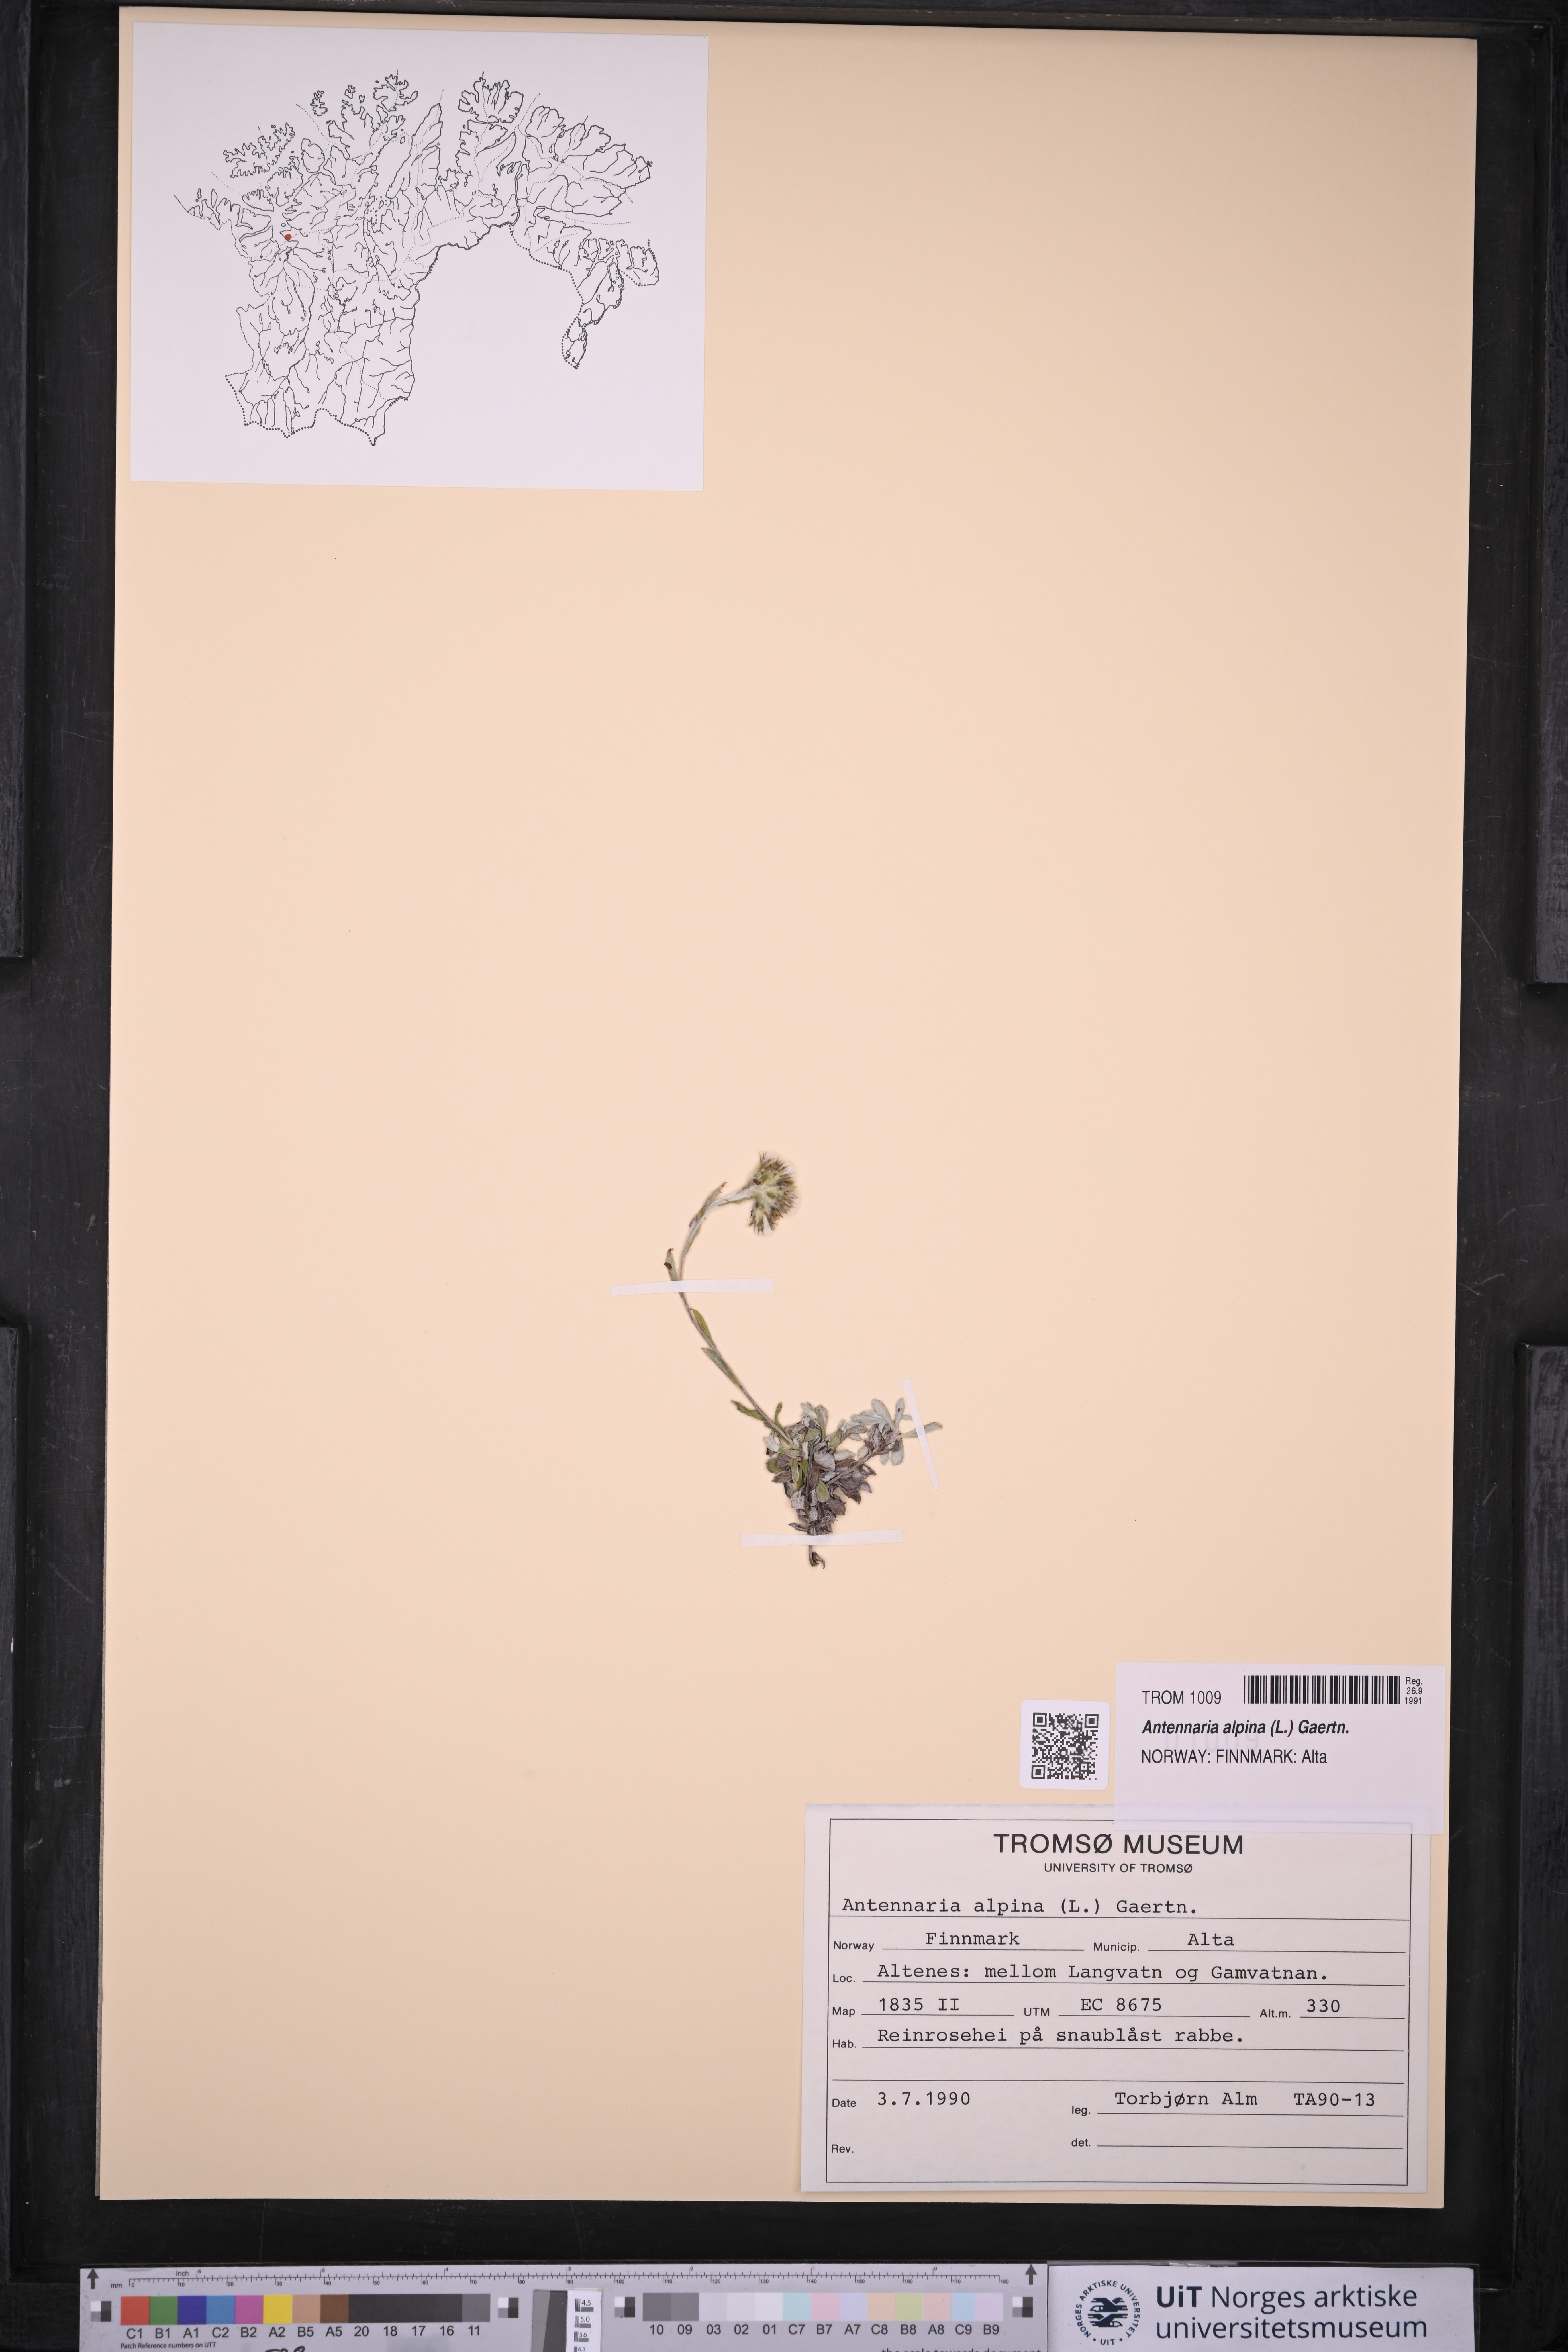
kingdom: Plantae
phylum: Tracheophyta
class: Magnoliopsida
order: Asterales
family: Asteraceae
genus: Antennaria
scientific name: Antennaria alpina
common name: Alpine pussytoes
